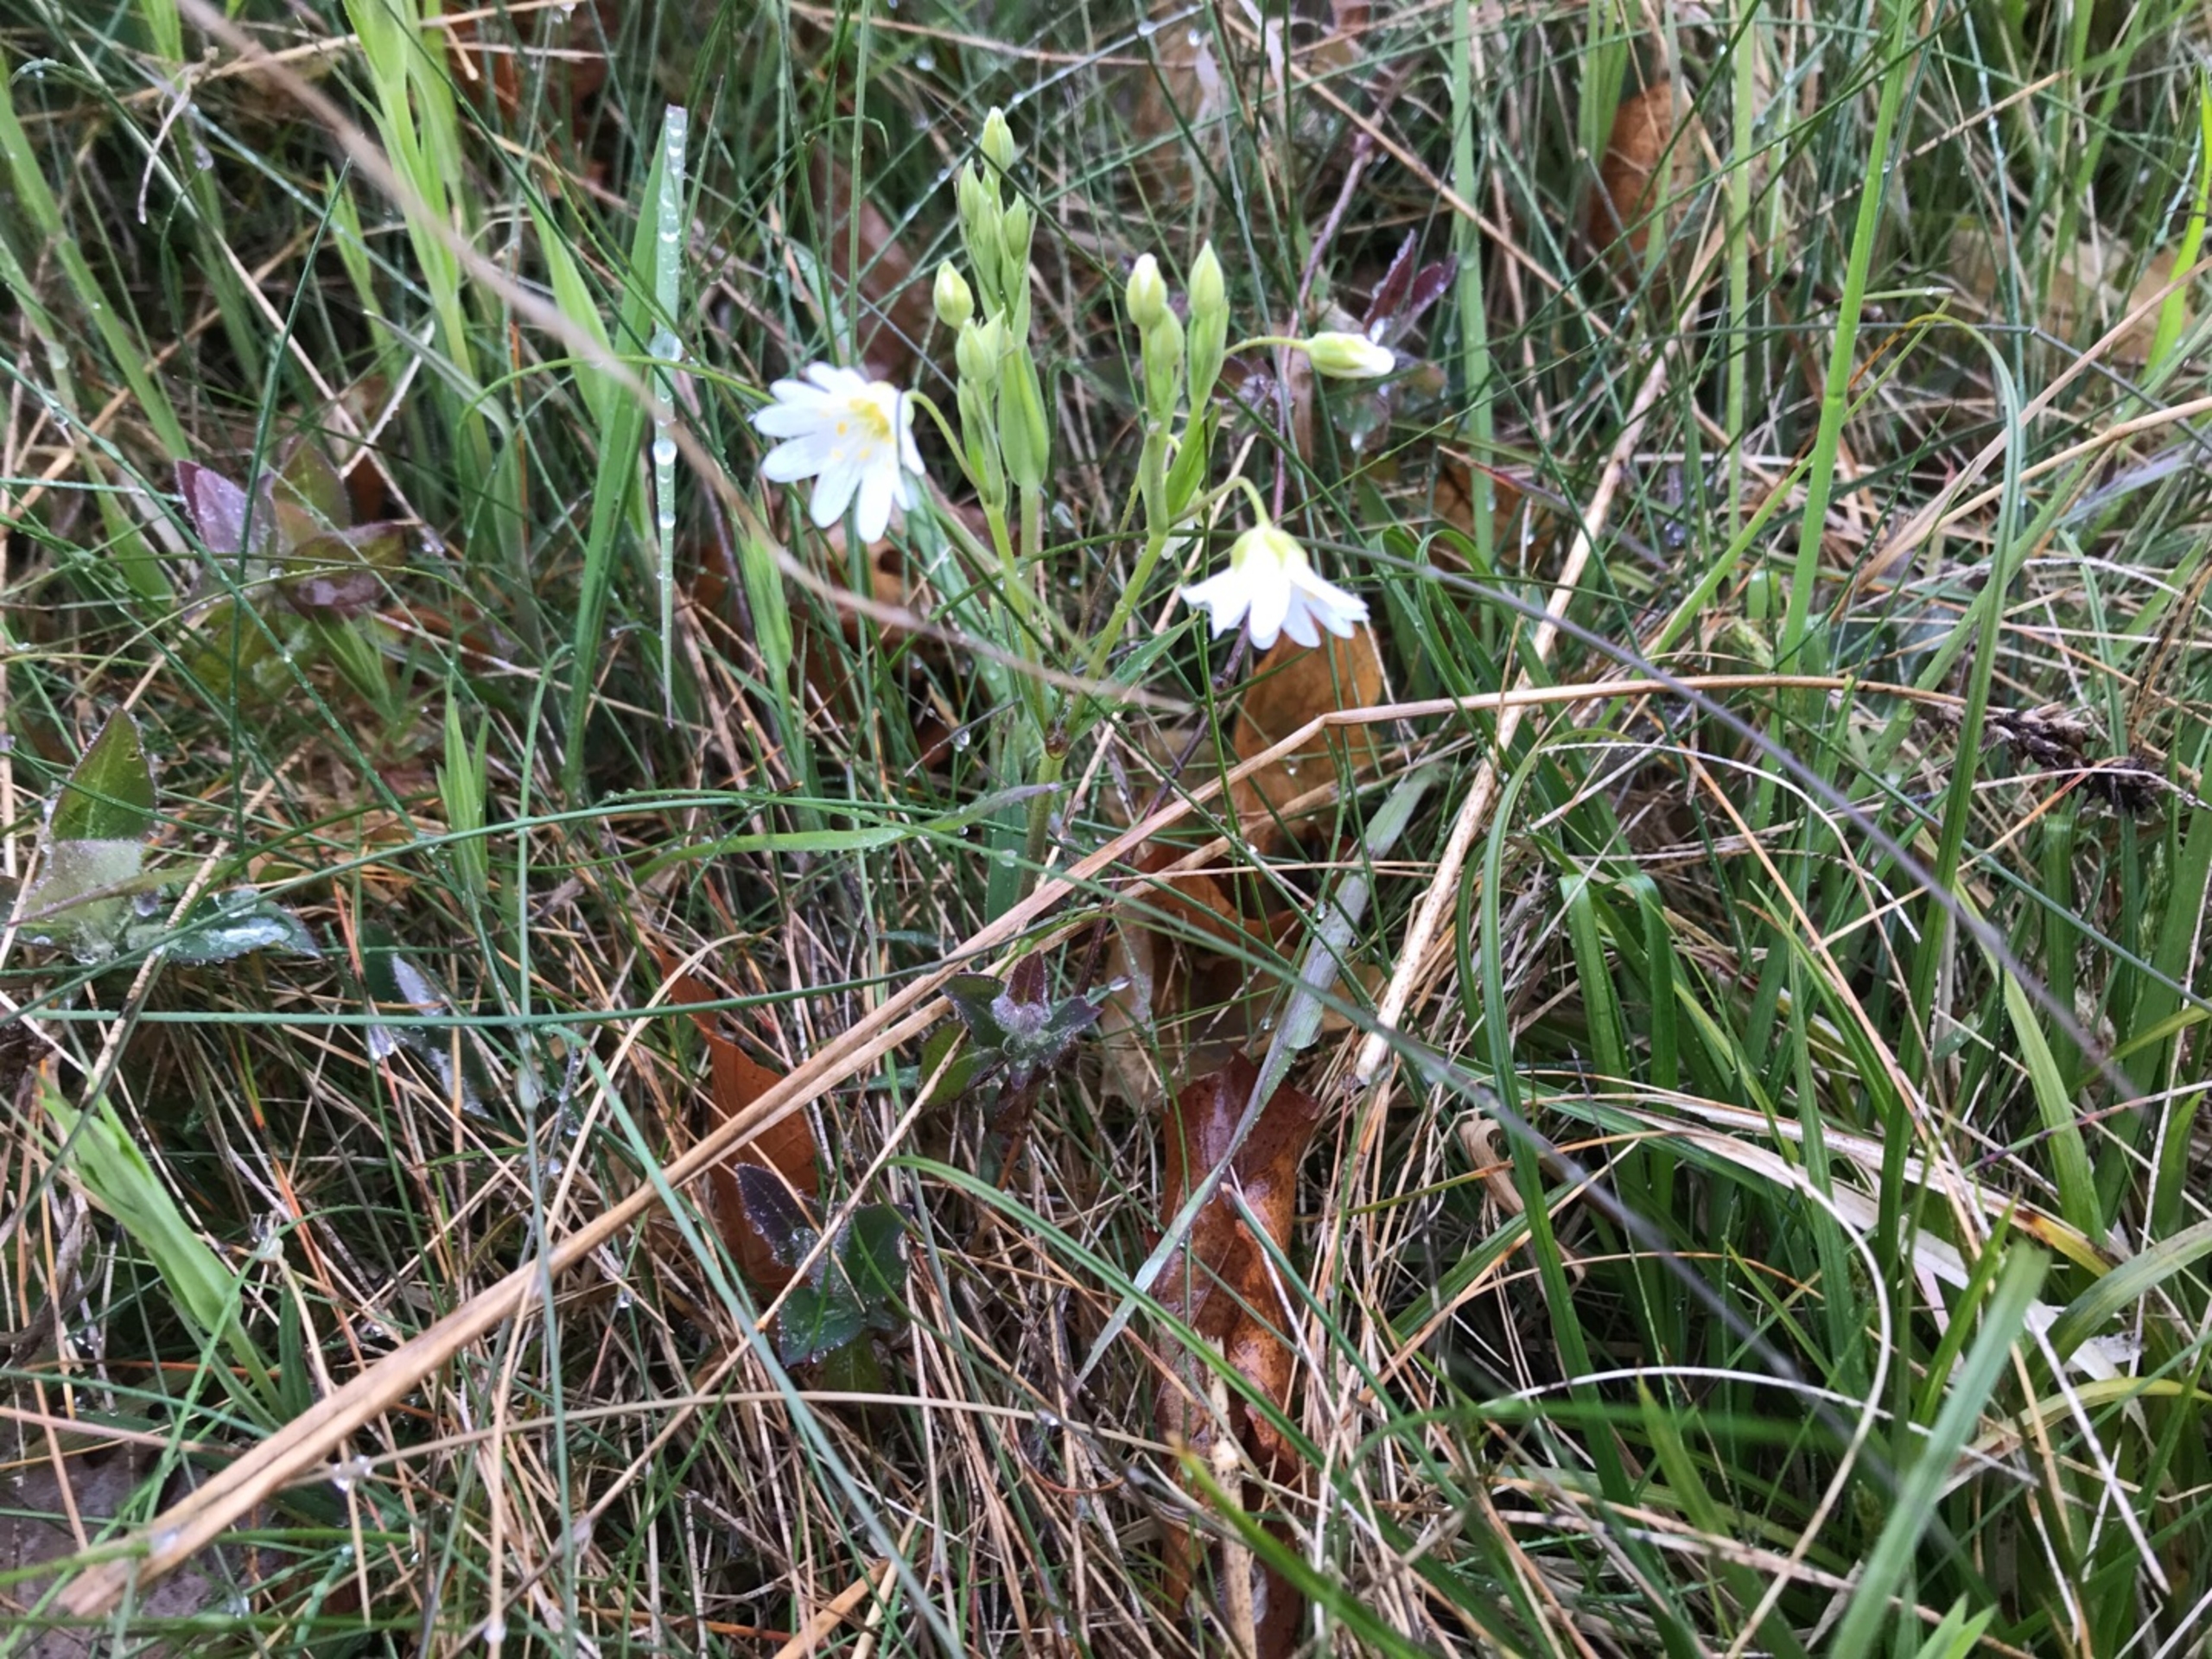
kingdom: Plantae
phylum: Tracheophyta
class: Magnoliopsida
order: Caryophyllales
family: Caryophyllaceae
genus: Rabelera
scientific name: Rabelera holostea
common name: Stor fladstjerne
